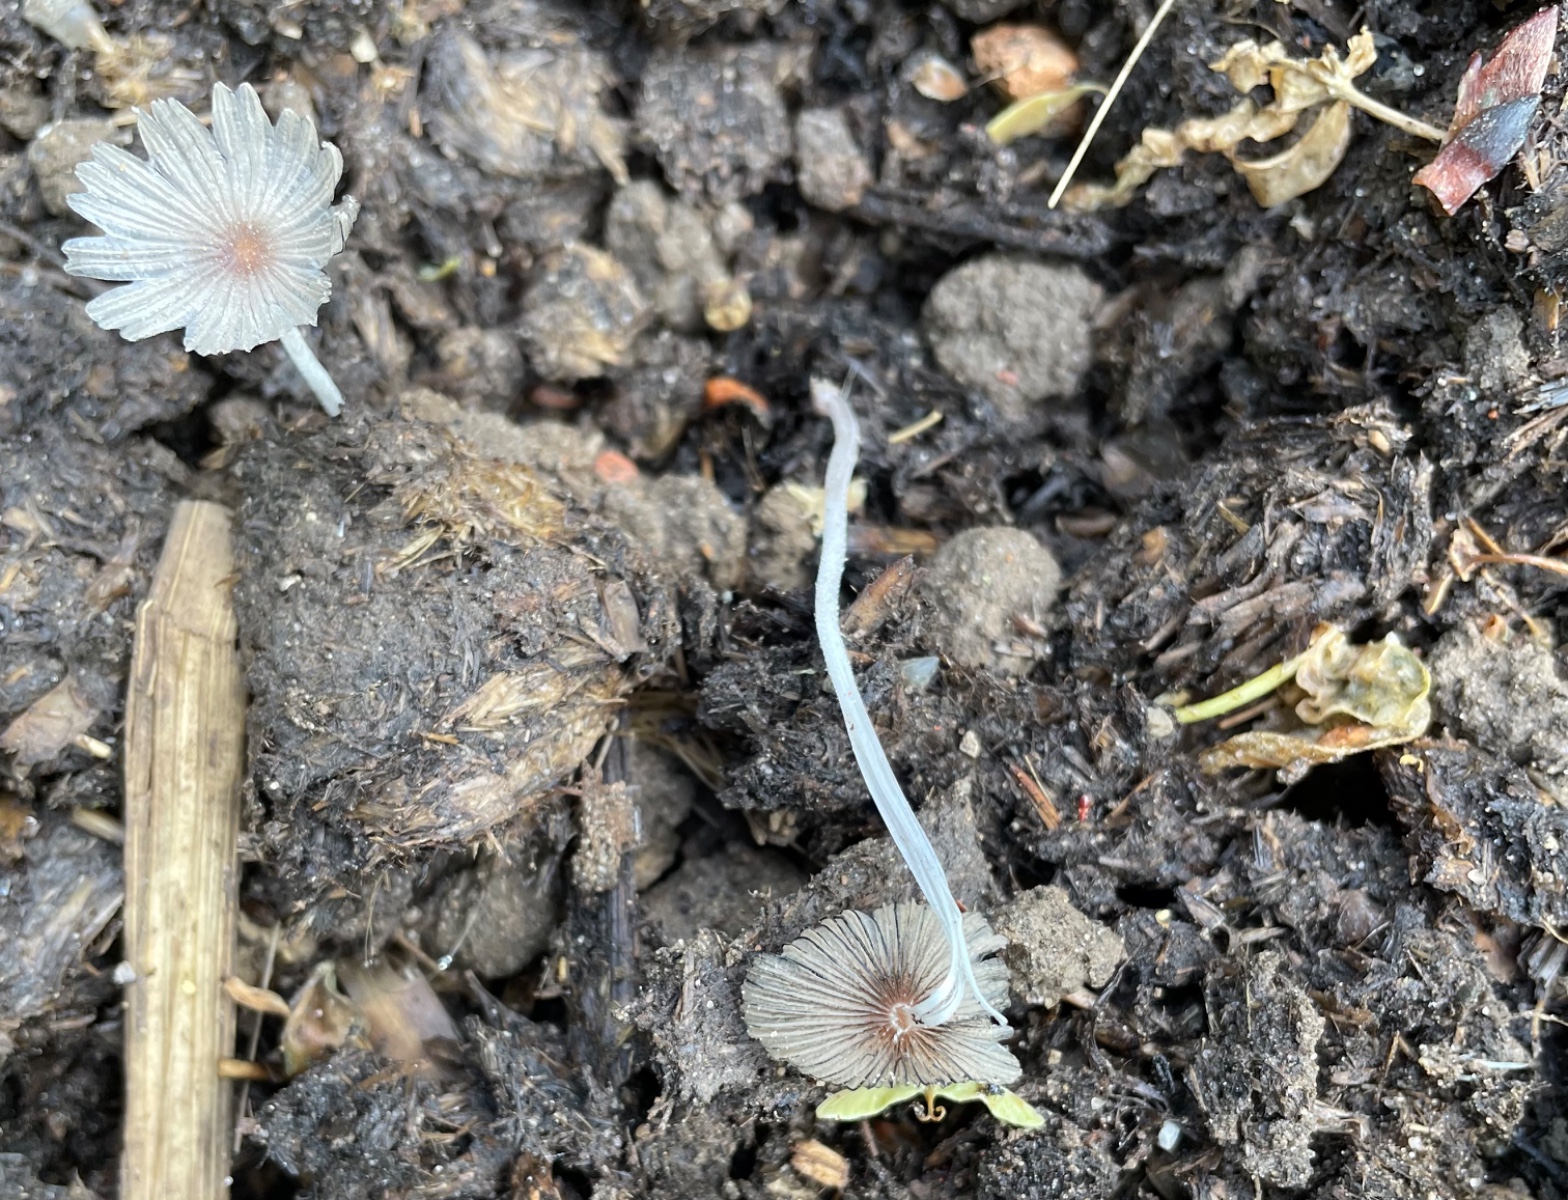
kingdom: Fungi
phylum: Basidiomycota
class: Agaricomycetes
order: Agaricales
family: Psathyrellaceae
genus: Tulosesus
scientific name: Tulosesus marculentus
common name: hexagonsporet blækhat
